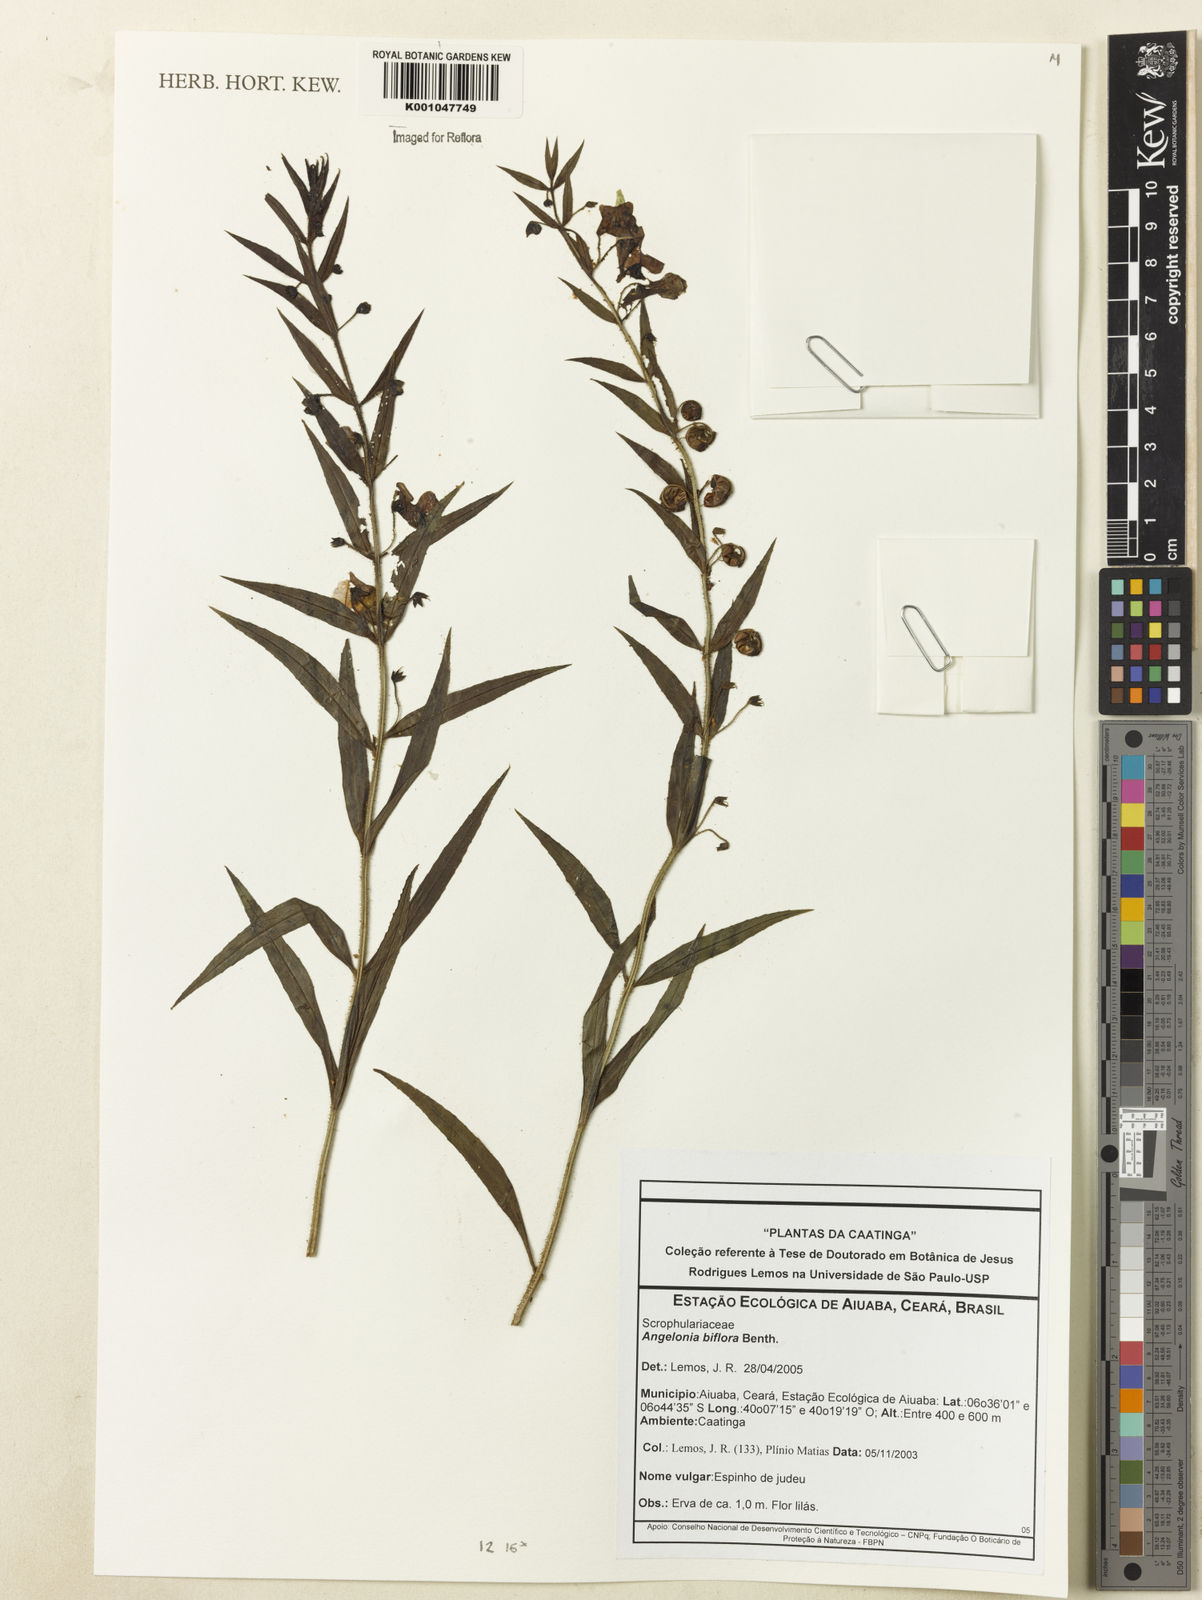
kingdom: Plantae
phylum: Tracheophyta
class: Magnoliopsida
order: Lamiales
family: Plantaginaceae
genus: Angelonia
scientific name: Angelonia biflora
